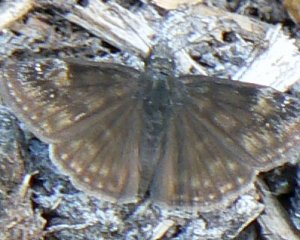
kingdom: Animalia
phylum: Arthropoda
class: Insecta
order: Lepidoptera
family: Hesperiidae
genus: Gesta
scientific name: Gesta
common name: Wild Indigo Duskywing
